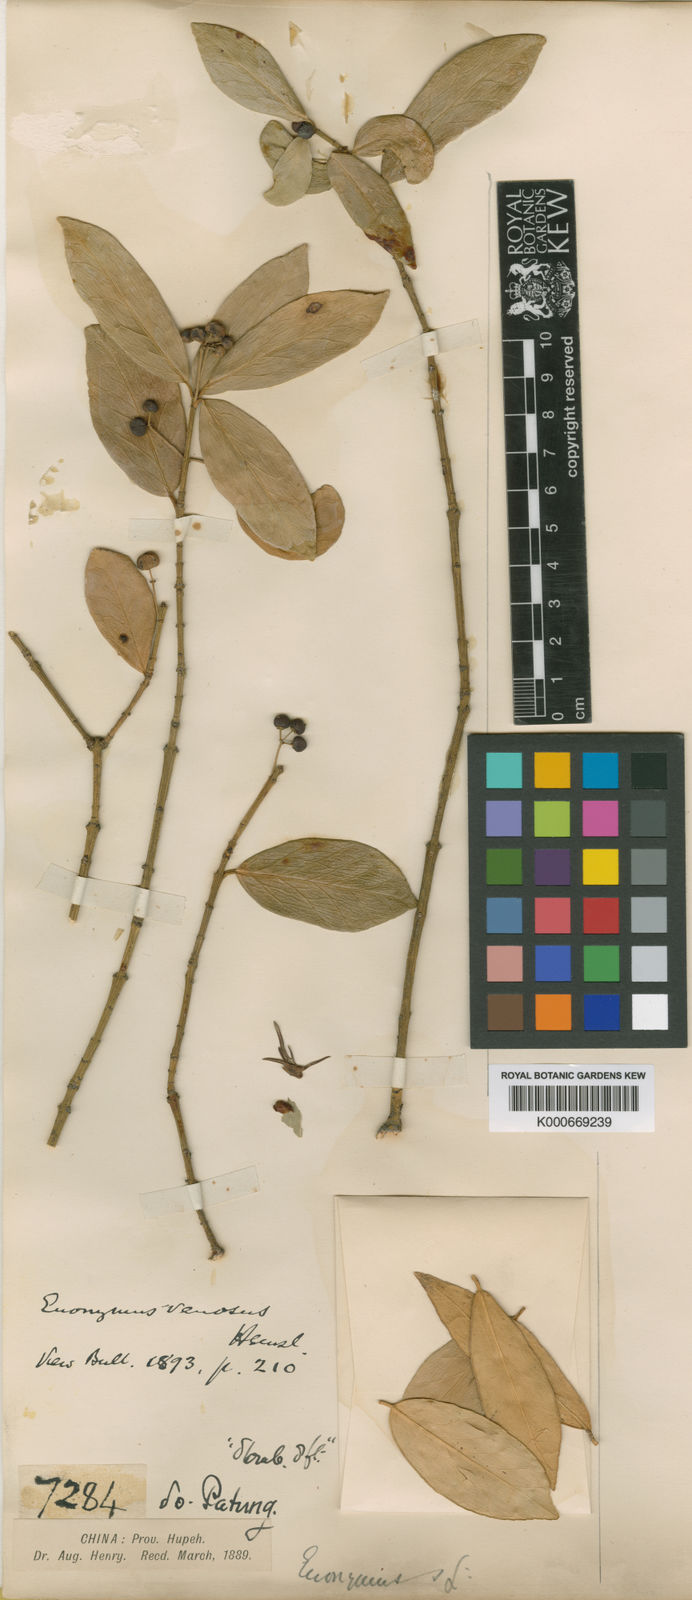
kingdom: Plantae
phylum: Tracheophyta
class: Magnoliopsida
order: Celastrales
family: Celastraceae
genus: Euonymus
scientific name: Euonymus venosus
